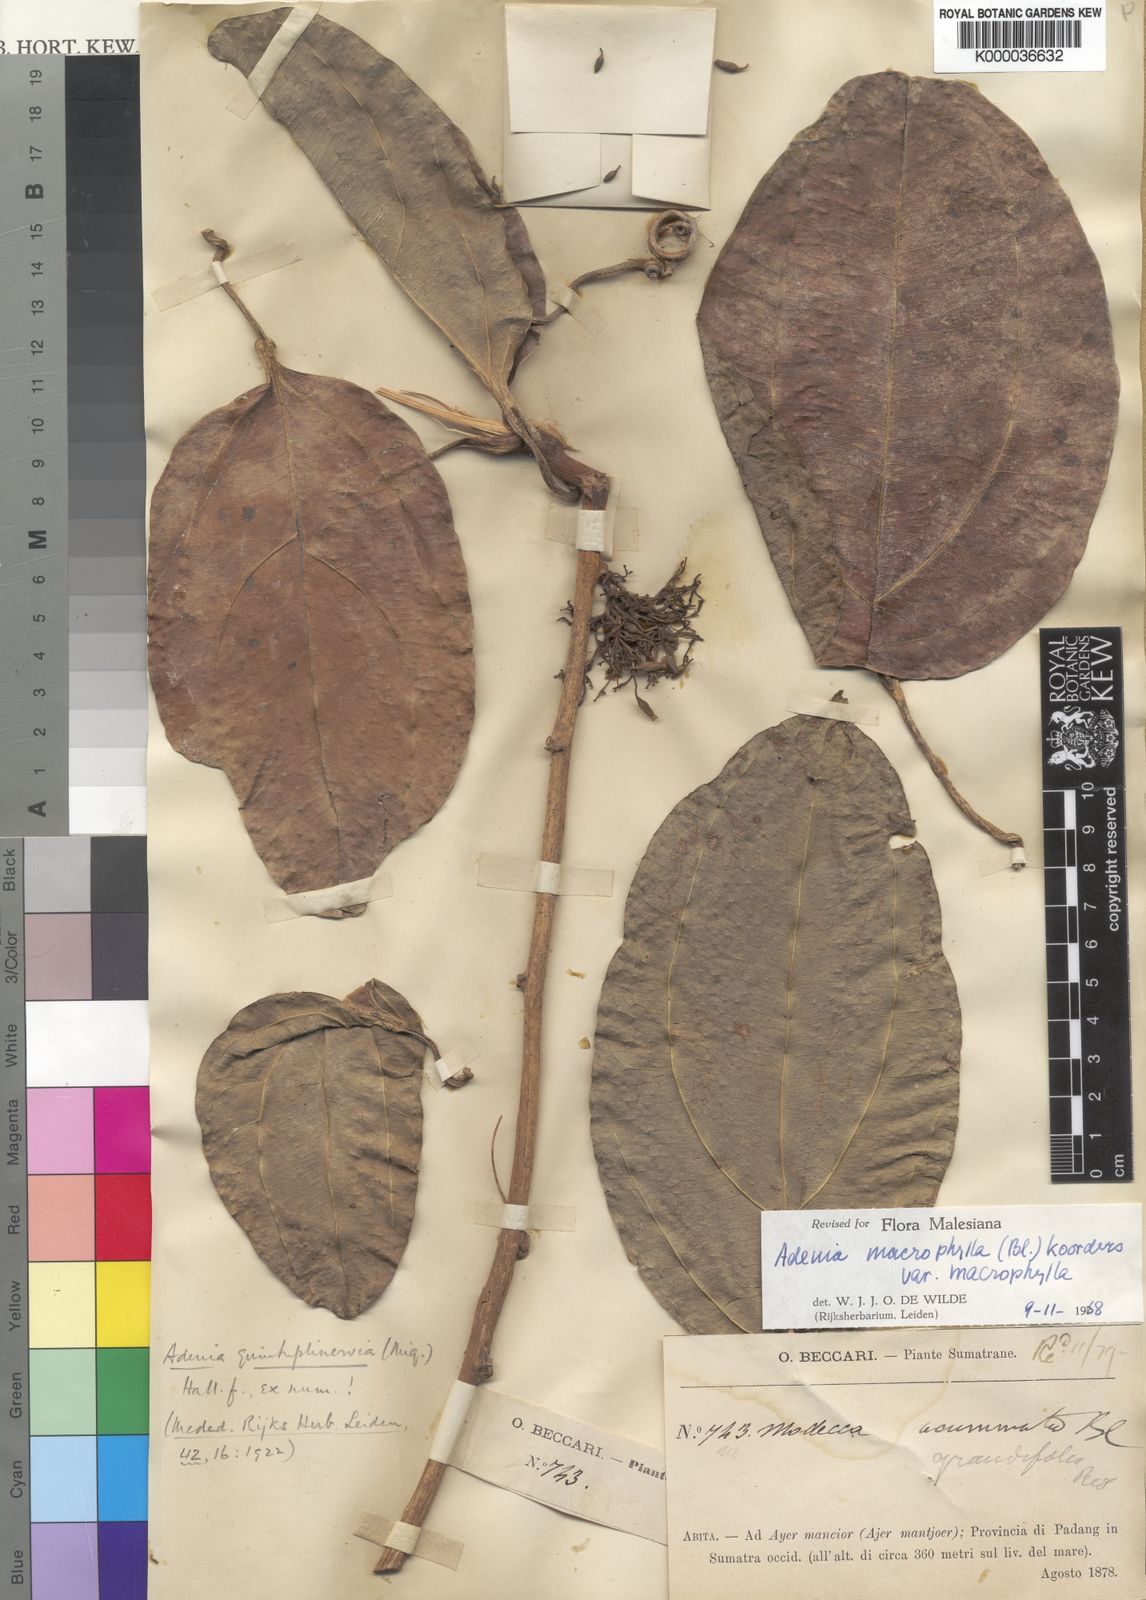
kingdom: Plantae
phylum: Tracheophyta
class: Magnoliopsida
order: Malpighiales
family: Passifloraceae
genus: Adenia
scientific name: Adenia macrophylla
